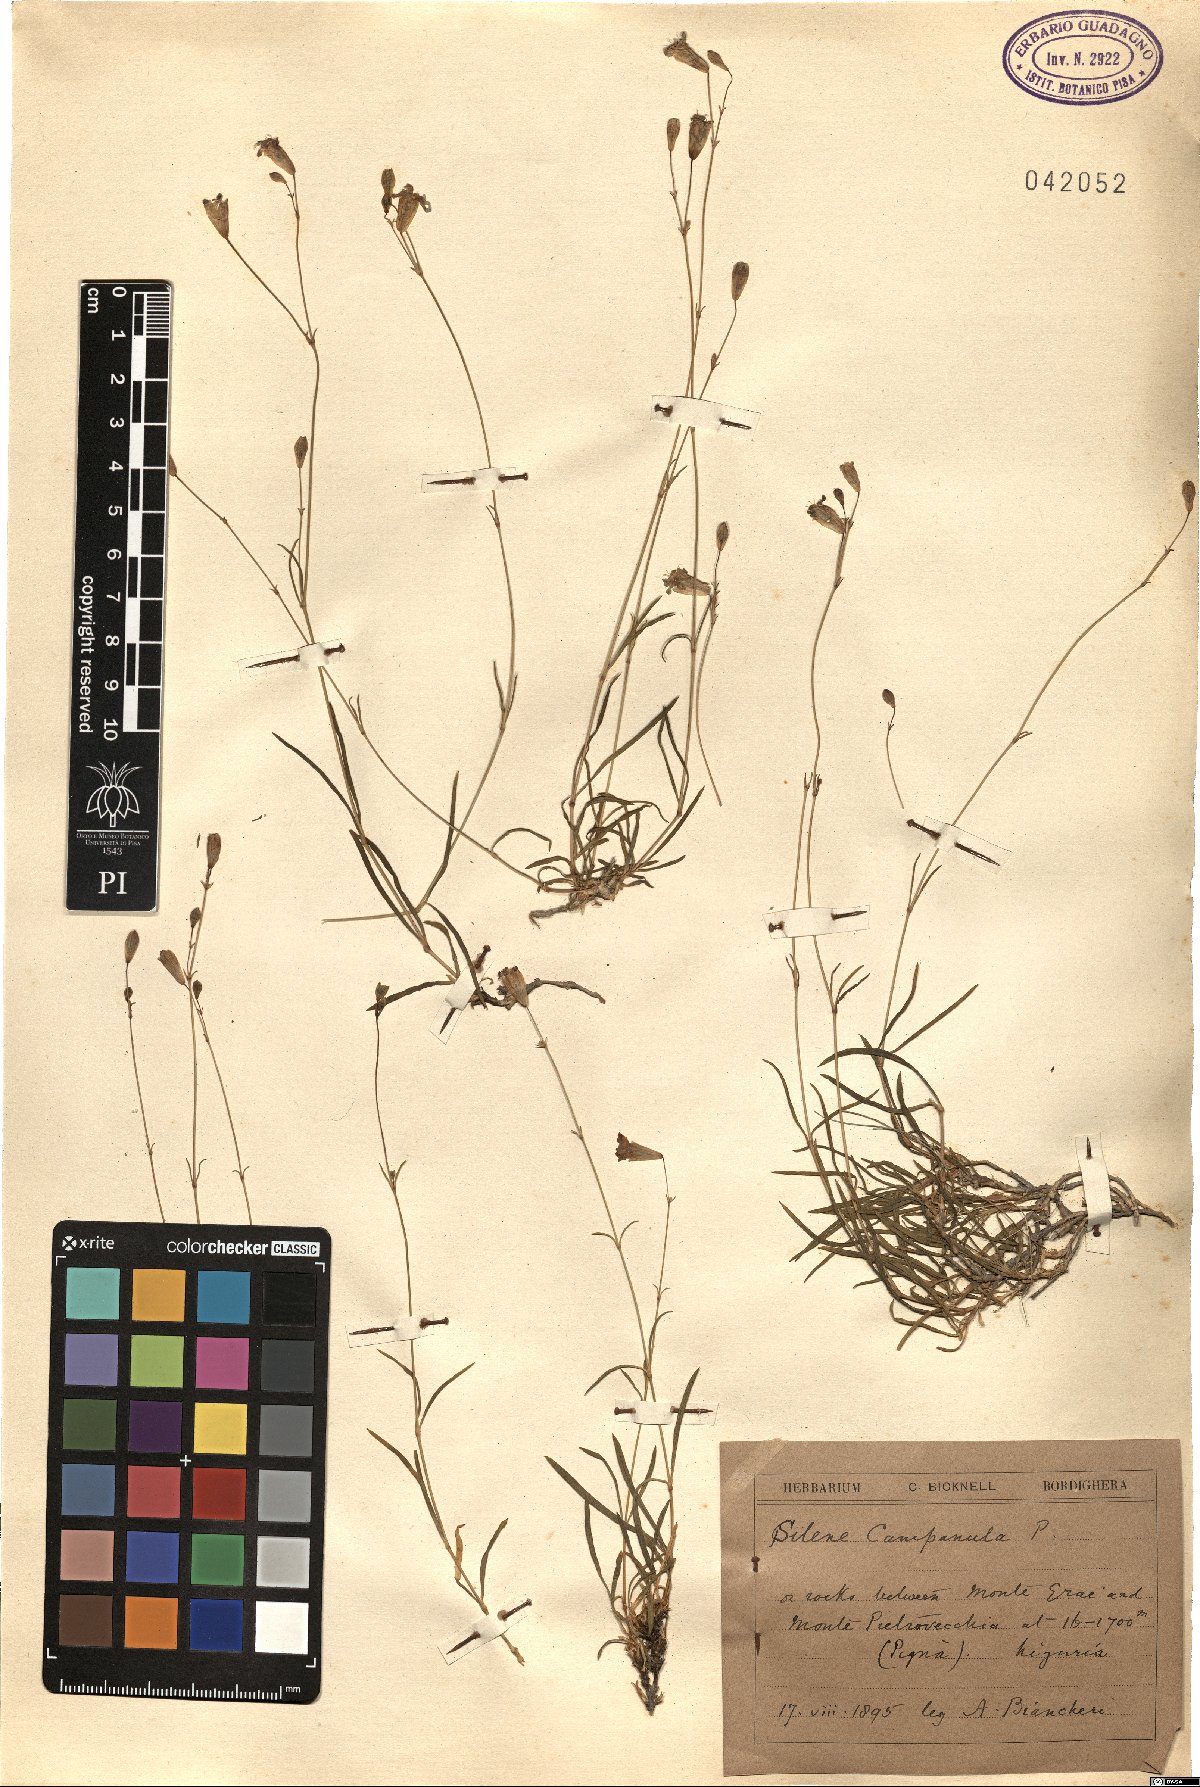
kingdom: Plantae
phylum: Tracheophyta
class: Magnoliopsida
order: Caryophyllales
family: Caryophyllaceae
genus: Silene
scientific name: Silene campanula
